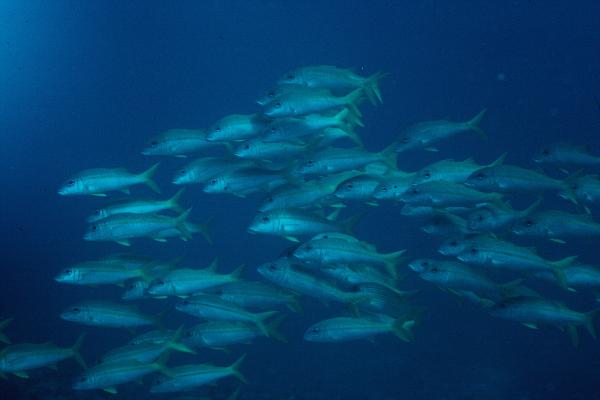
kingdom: Animalia
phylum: Chordata
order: Perciformes
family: Mullidae
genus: Mulloidichthys
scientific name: Mulloidichthys vanicolensis
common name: Yellowfin goatfish
